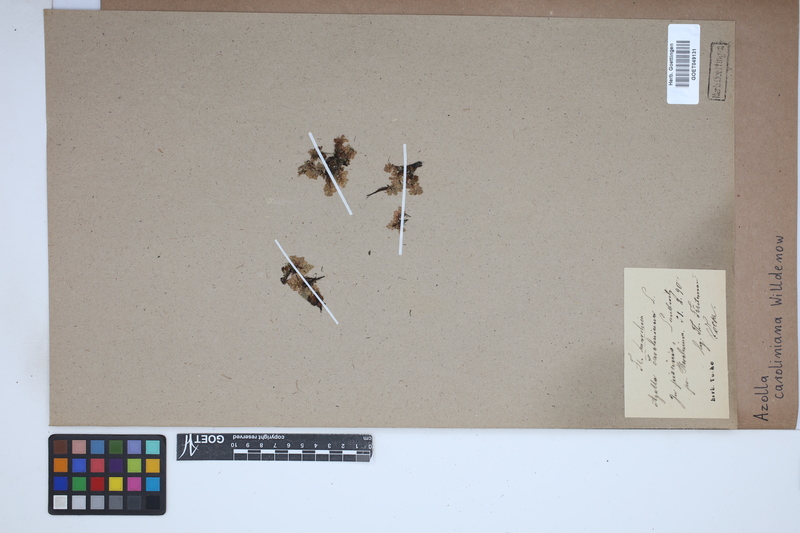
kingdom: Plantae
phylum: Tracheophyta
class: Polypodiopsida
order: Salviniales
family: Salviniaceae
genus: Azolla
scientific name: Azolla caroliniana
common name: Carolina mosquitofern
